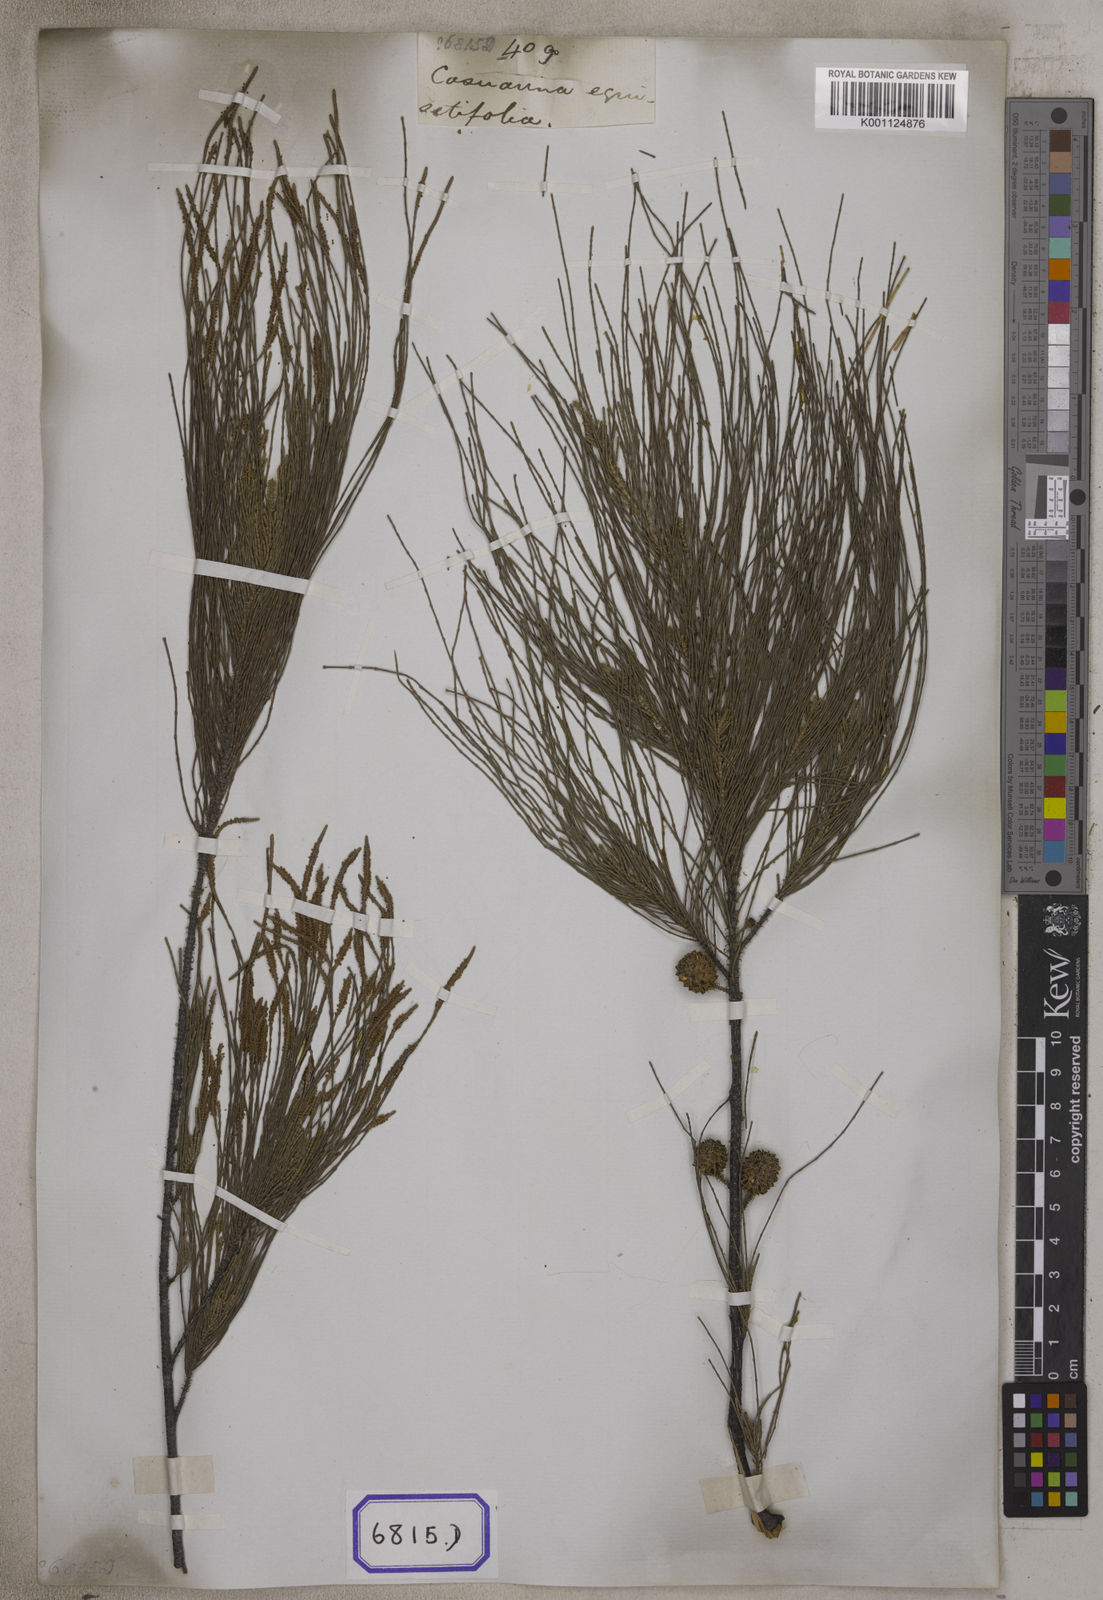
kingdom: Plantae
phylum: Tracheophyta
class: Magnoliopsida
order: Fagales
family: Casuarinaceae
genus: Casuarina
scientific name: Casuarina
